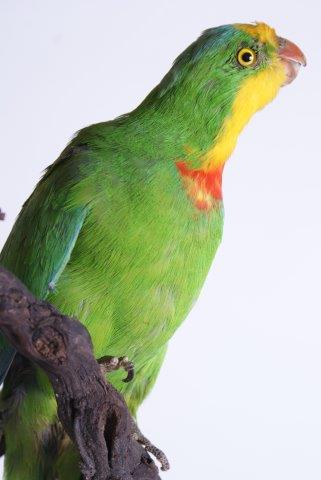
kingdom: Animalia
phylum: Chordata
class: Aves
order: Psittaciformes
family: Psittacidae
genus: Polytelis
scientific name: Polytelis swainsonii
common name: Superb parrot
